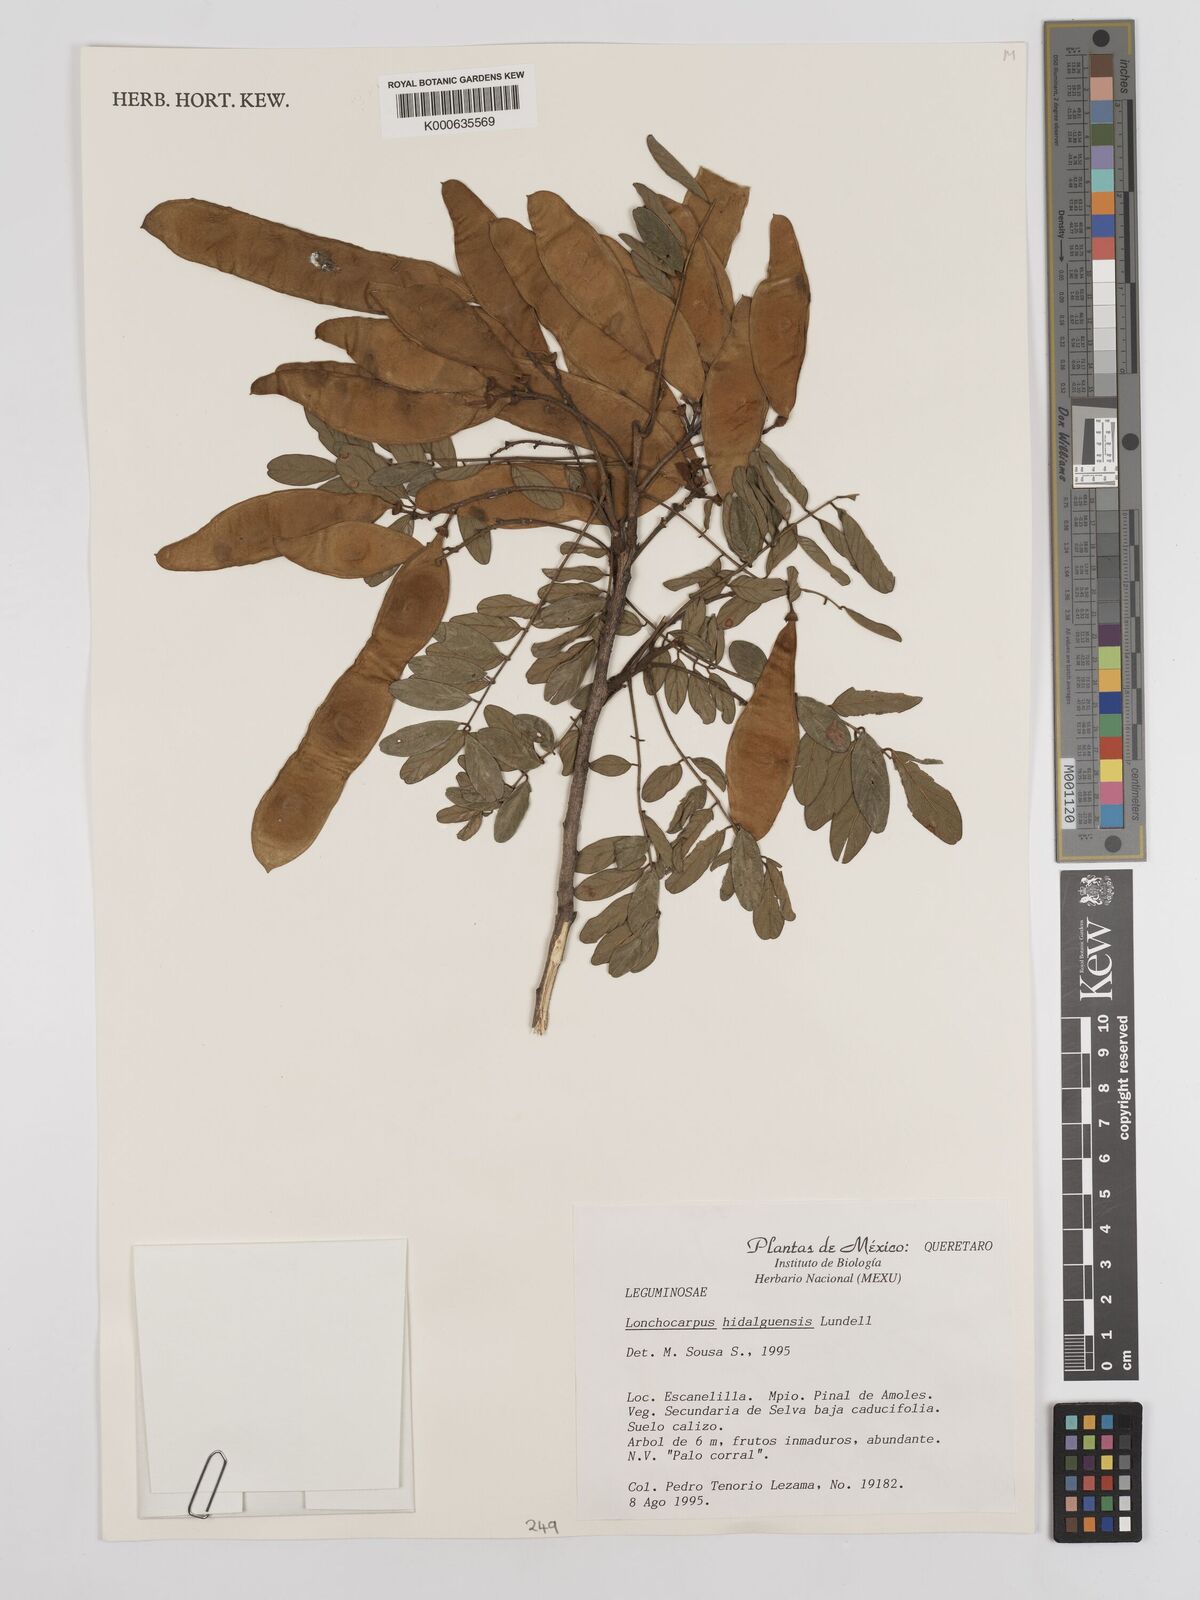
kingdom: Plantae
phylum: Tracheophyta
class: Magnoliopsida
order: Fabales
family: Fabaceae
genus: Lonchocarpus
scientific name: Lonchocarpus hidalgensis
